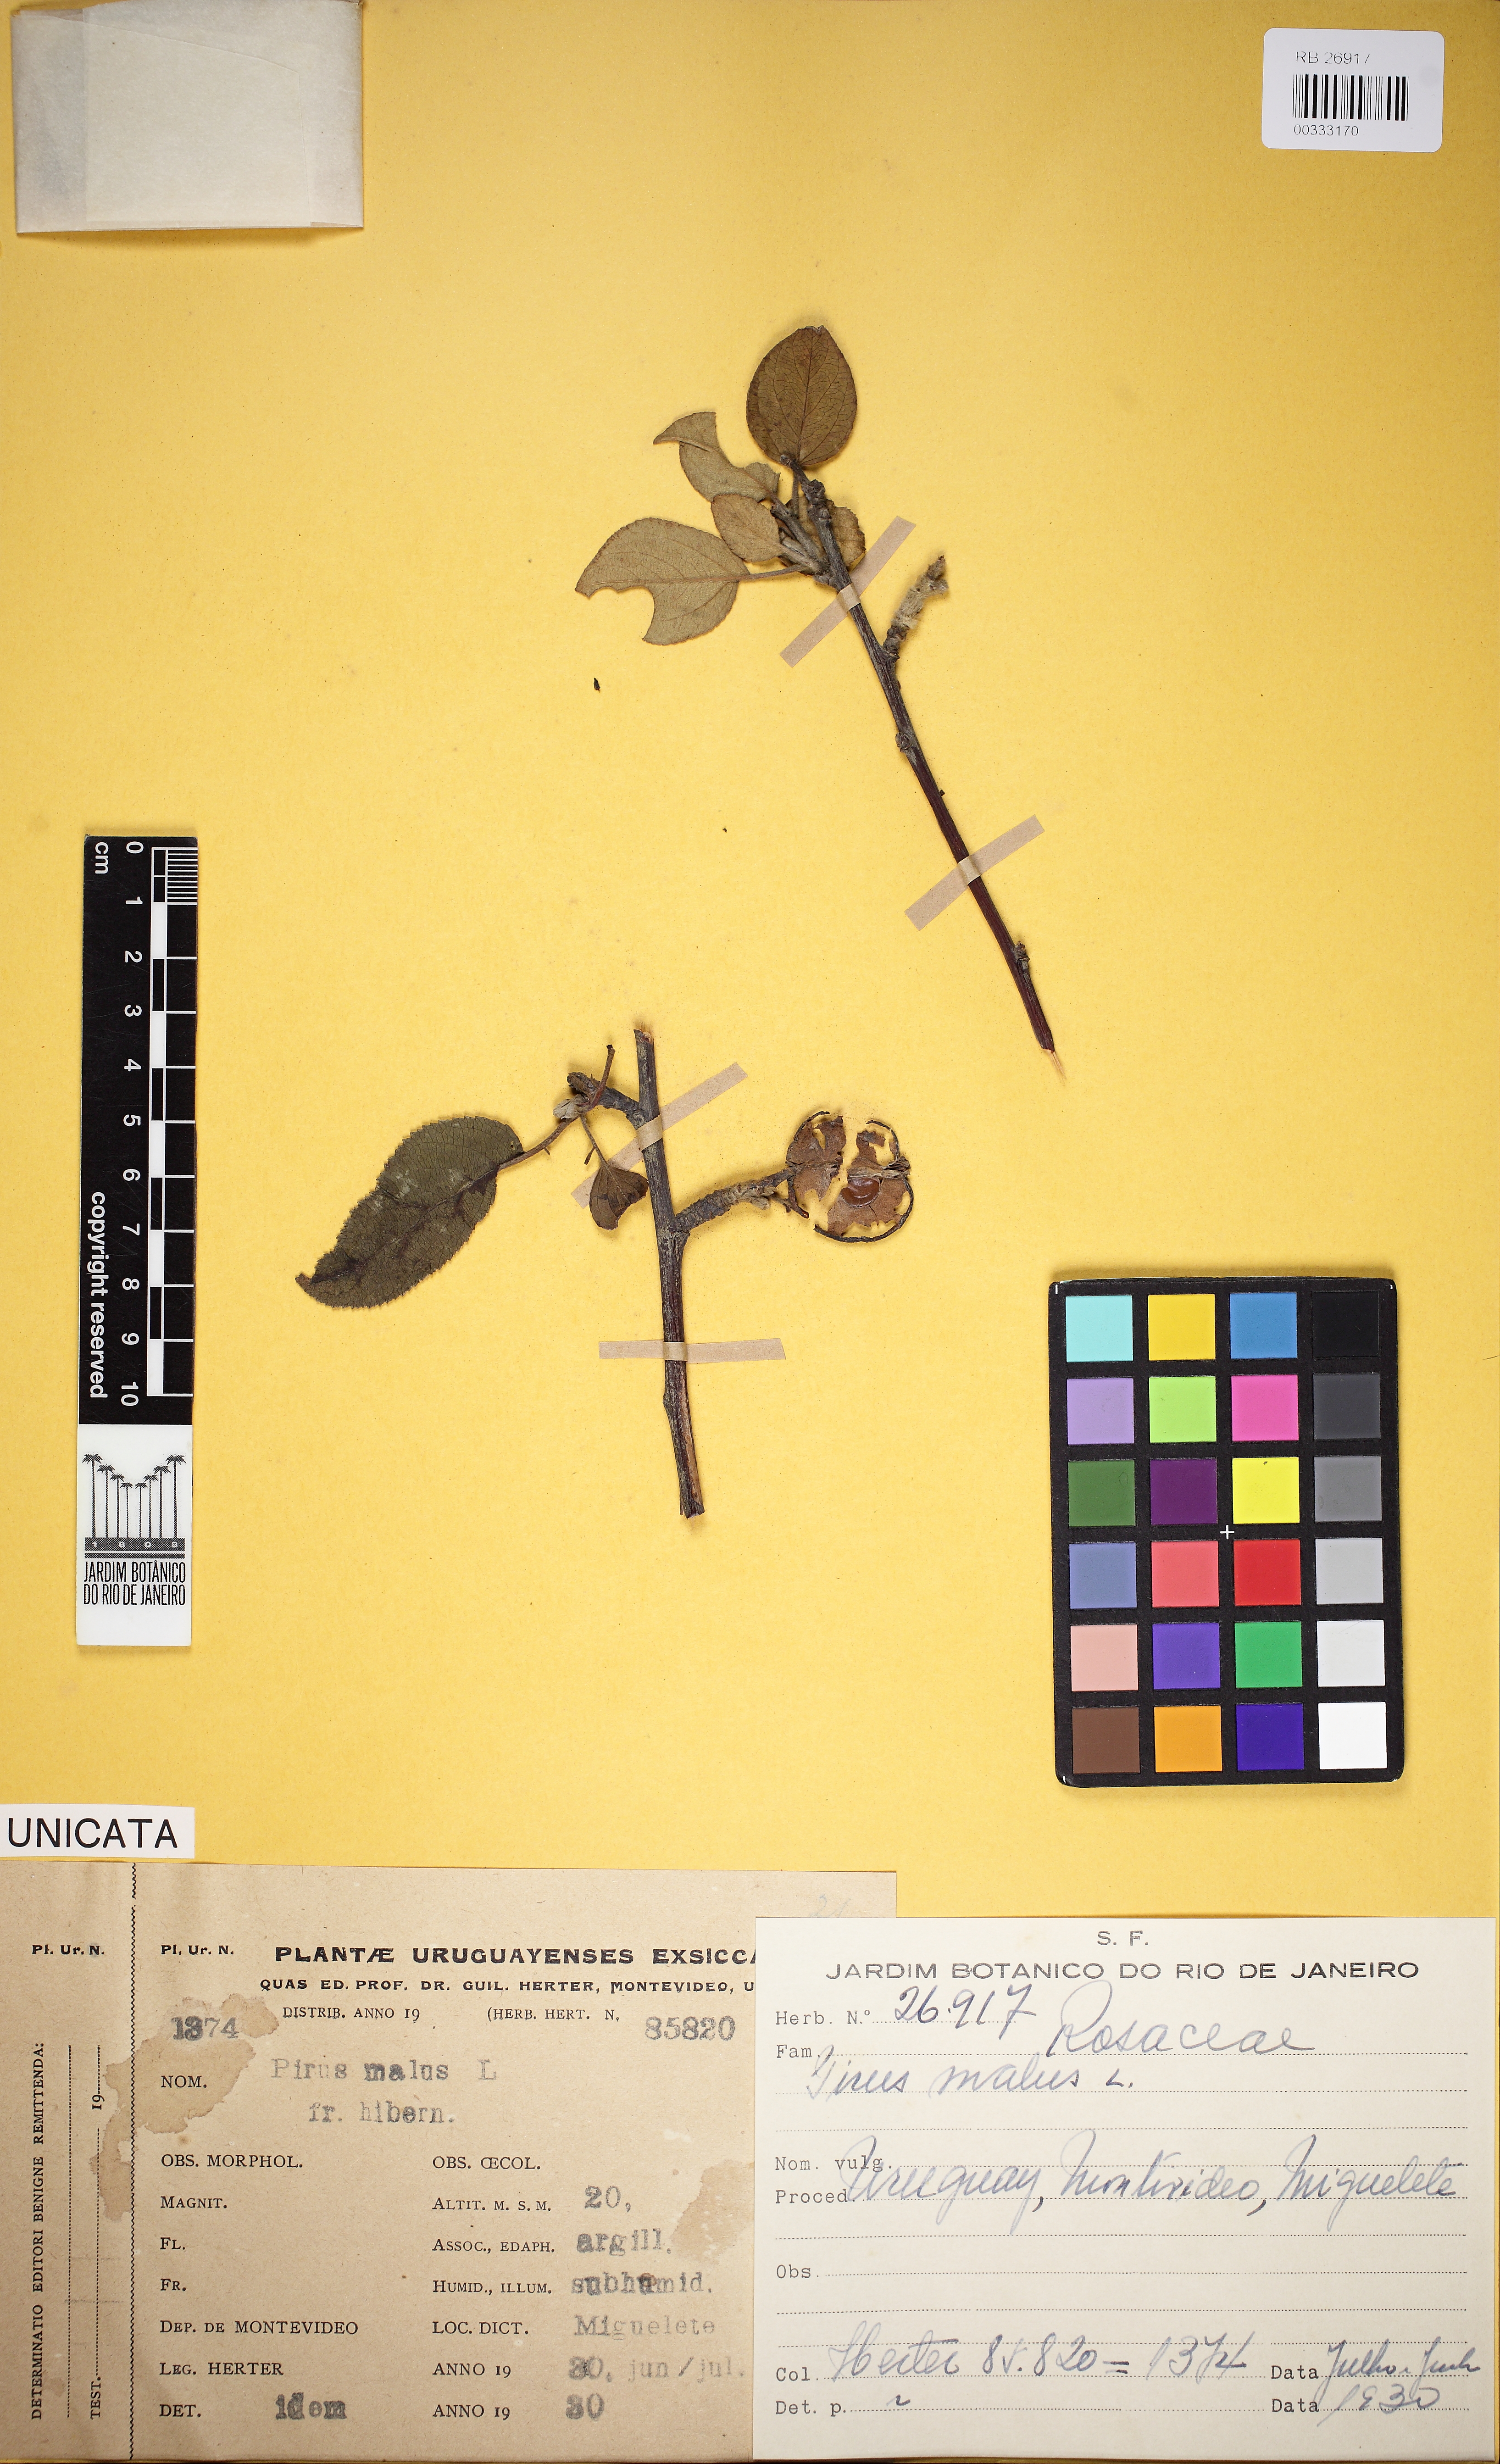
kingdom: Plantae
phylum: Tracheophyta
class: Magnoliopsida
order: Rosales
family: Rosaceae
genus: Malus
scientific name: Malus domestica
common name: Apple
